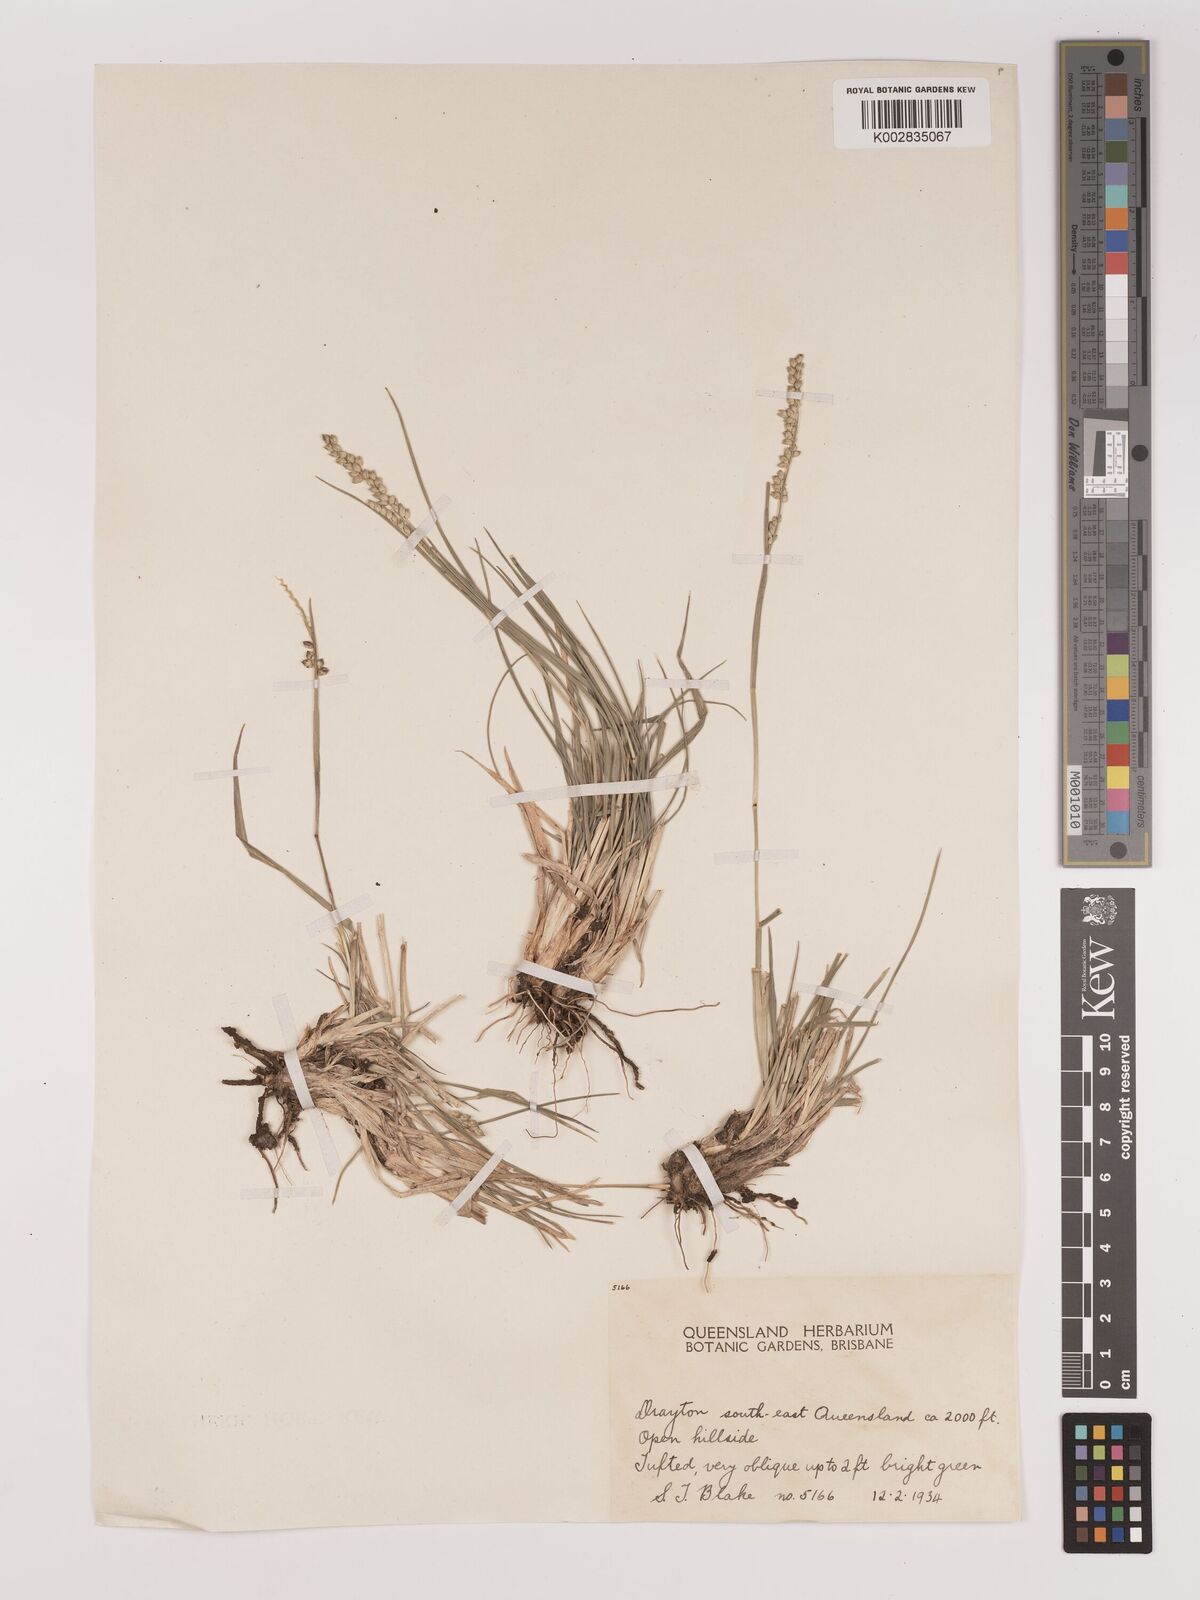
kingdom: Plantae
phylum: Tracheophyta
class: Liliopsida
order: Poales
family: Poaceae
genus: Setaria
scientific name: Setaria
